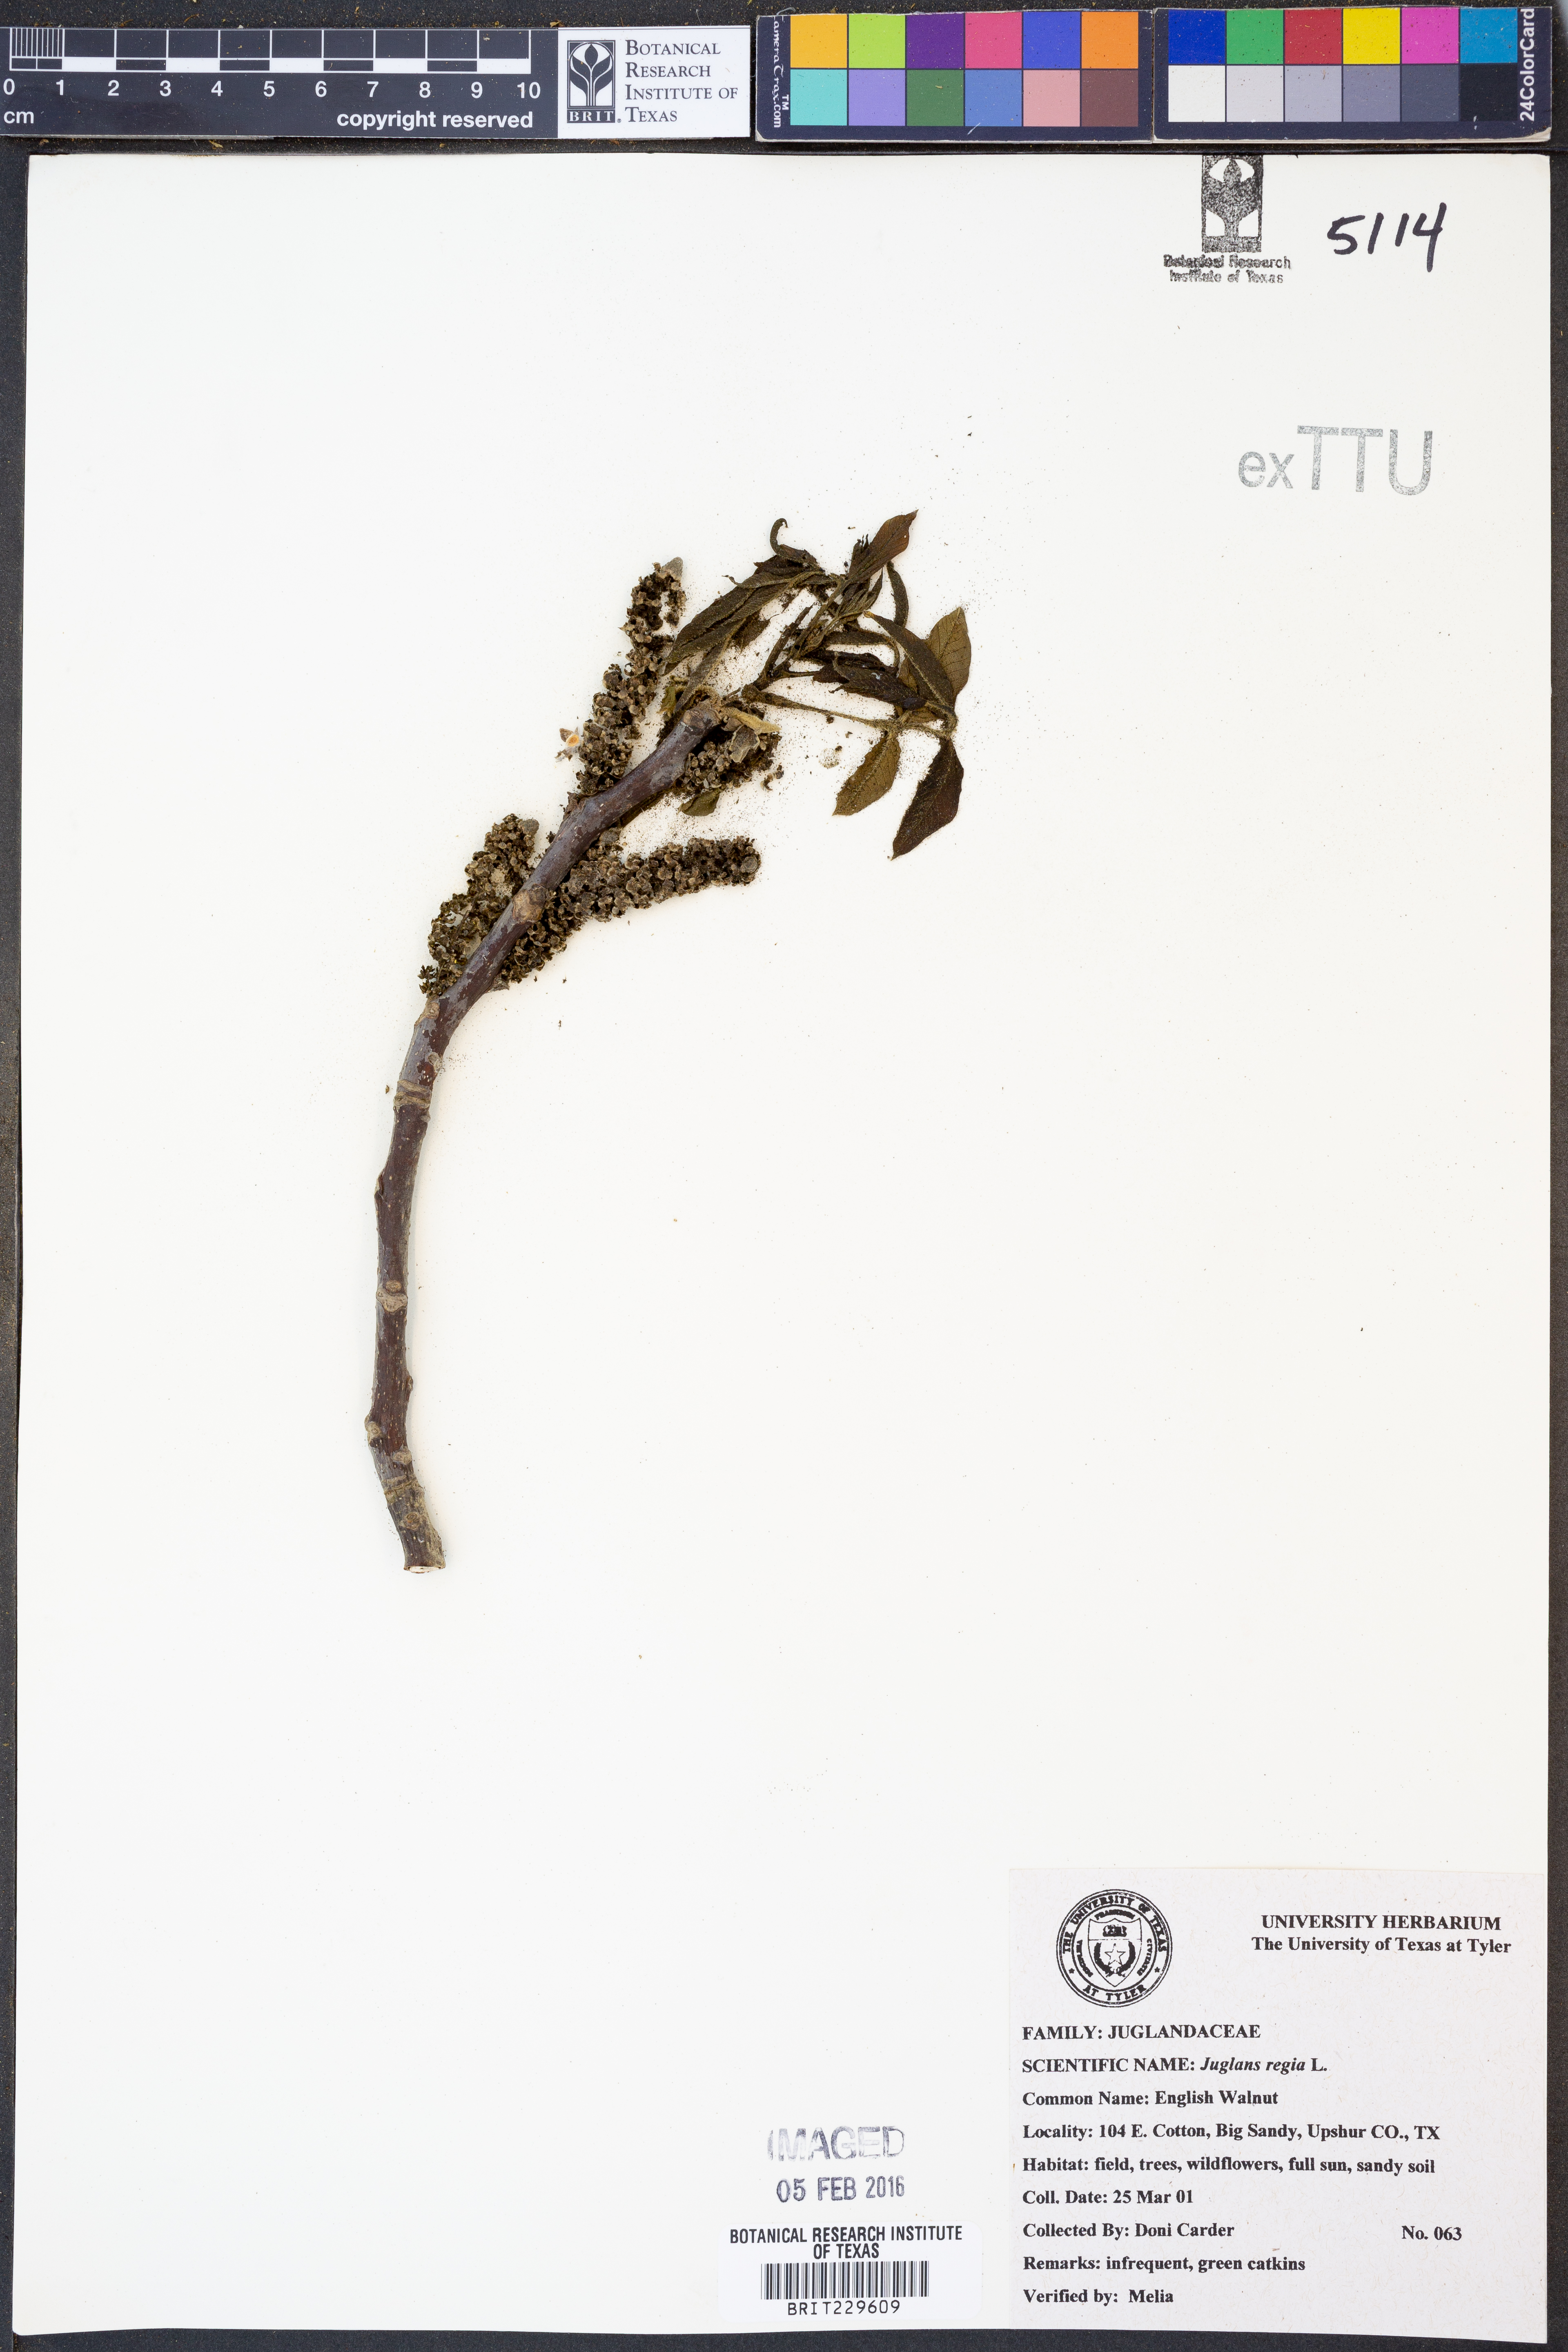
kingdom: Plantae
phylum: Tracheophyta
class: Magnoliopsida
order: Fagales
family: Juglandaceae
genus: Juglans
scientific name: Juglans regia
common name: Walnut
